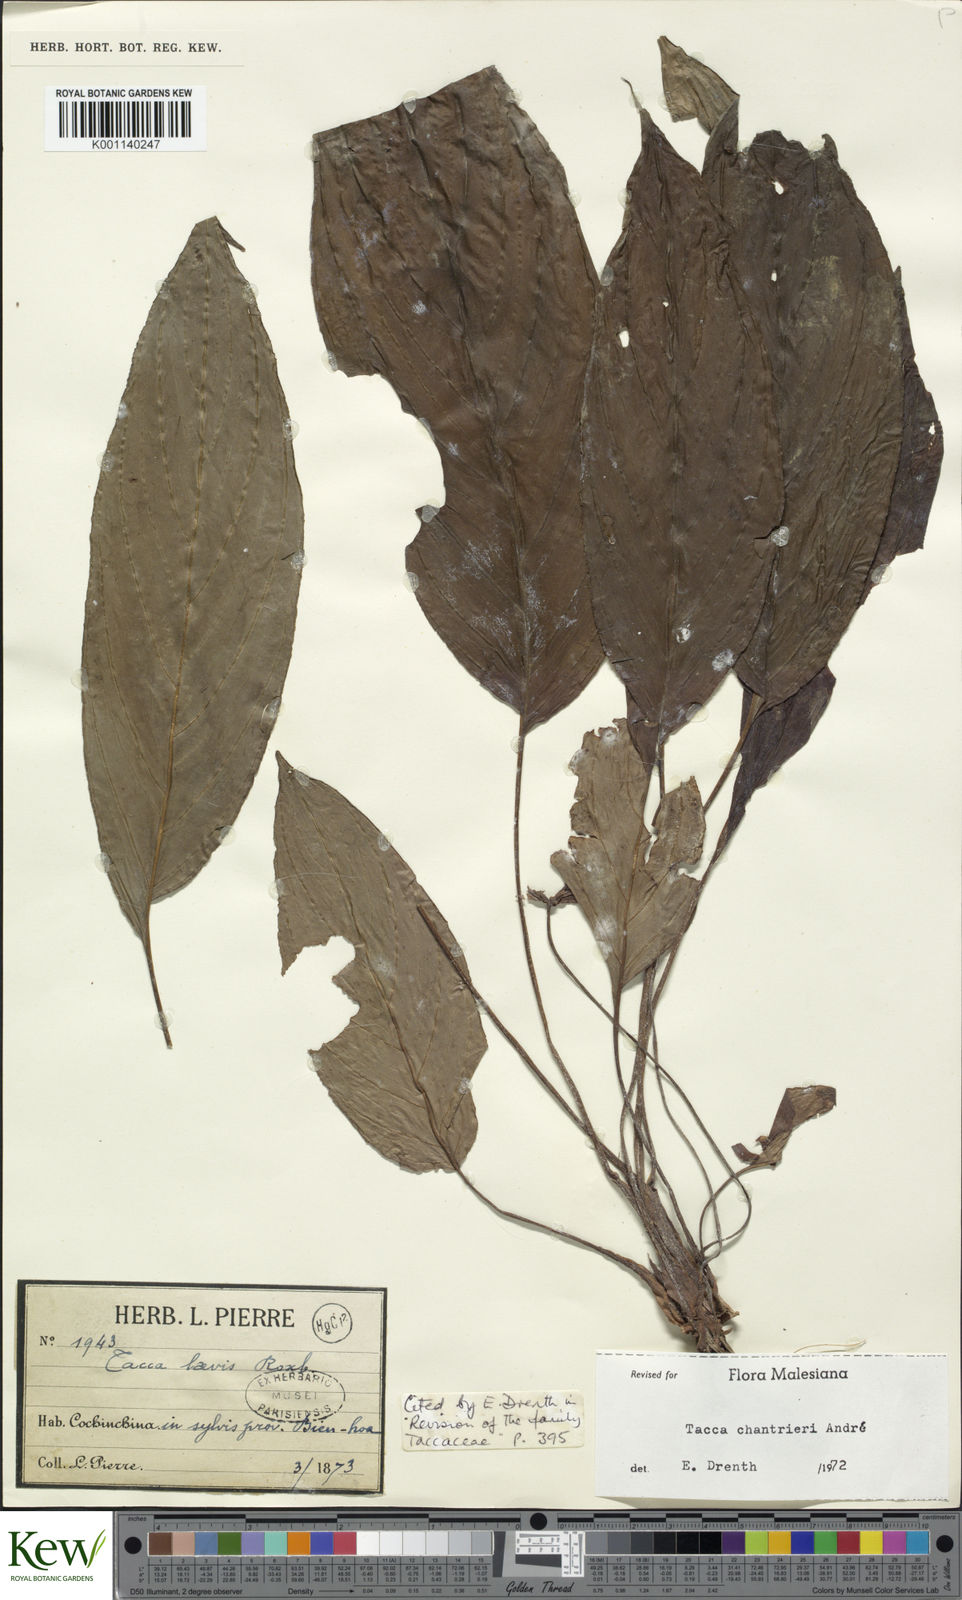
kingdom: Plantae
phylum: Tracheophyta
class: Liliopsida
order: Dioscoreales
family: Dioscoreaceae
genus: Tacca
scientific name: Tacca
